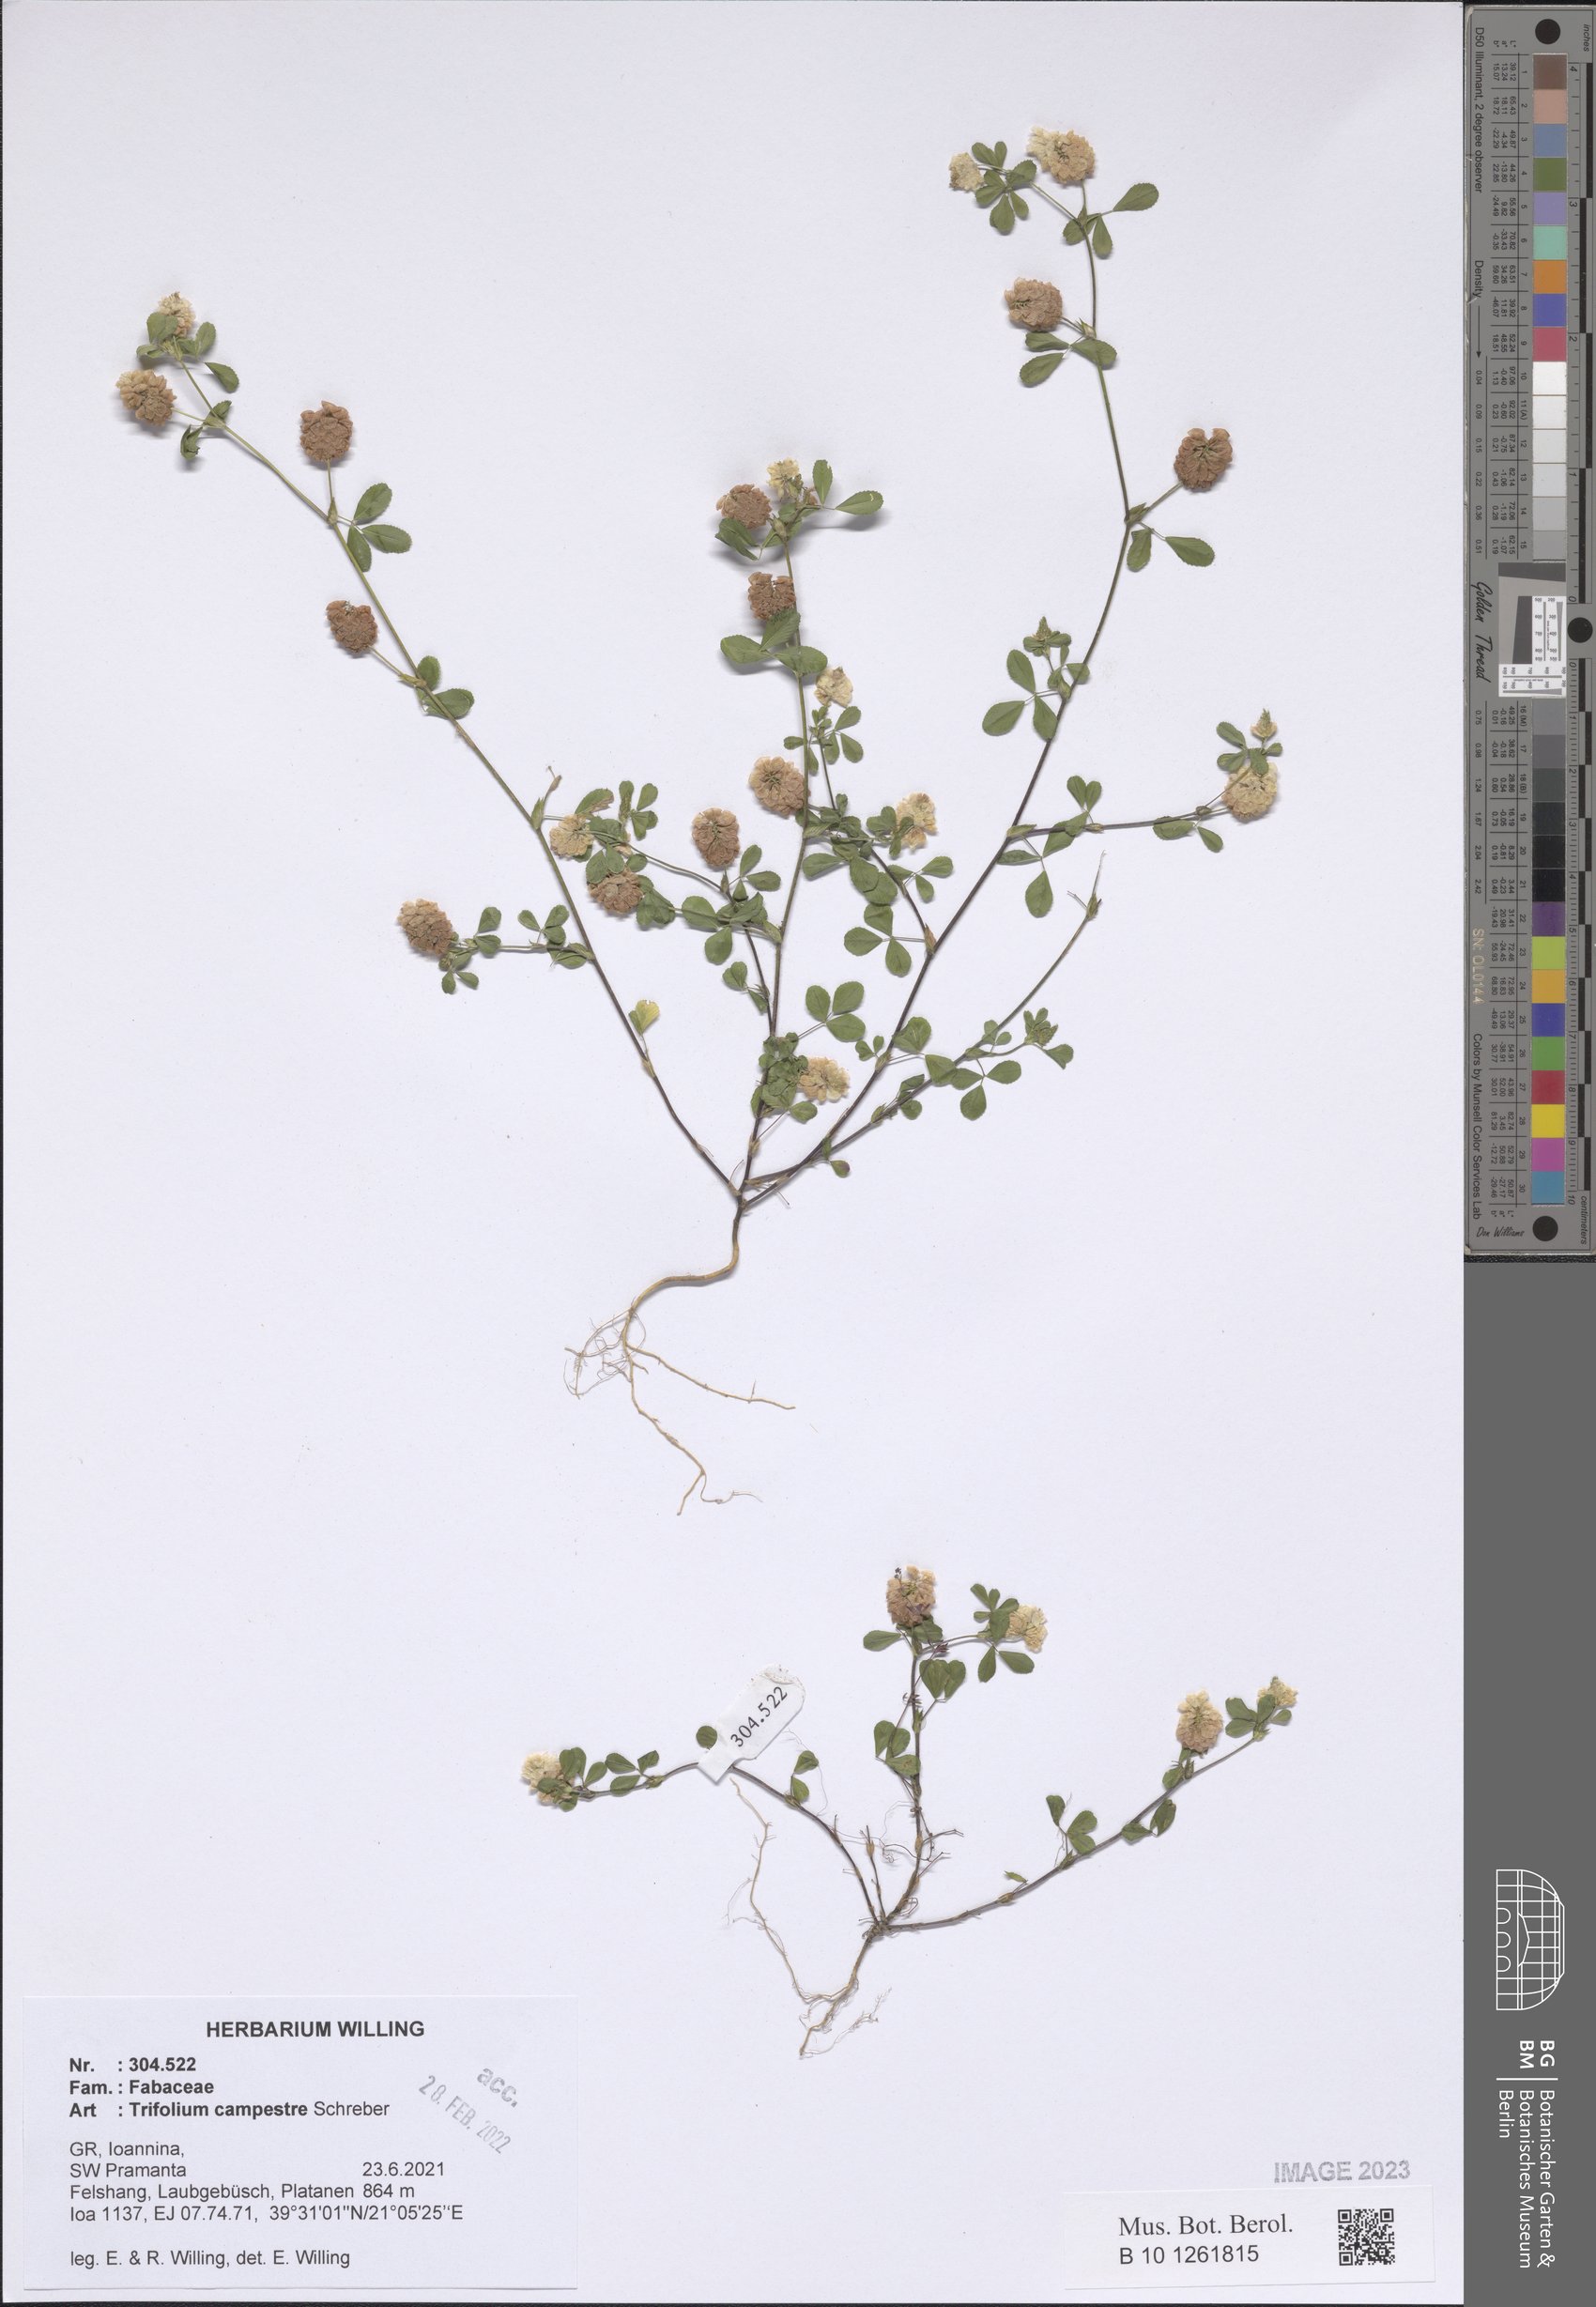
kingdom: Plantae
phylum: Tracheophyta
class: Magnoliopsida
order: Fabales
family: Fabaceae
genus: Trifolium
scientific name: Trifolium campestre
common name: Field clover
